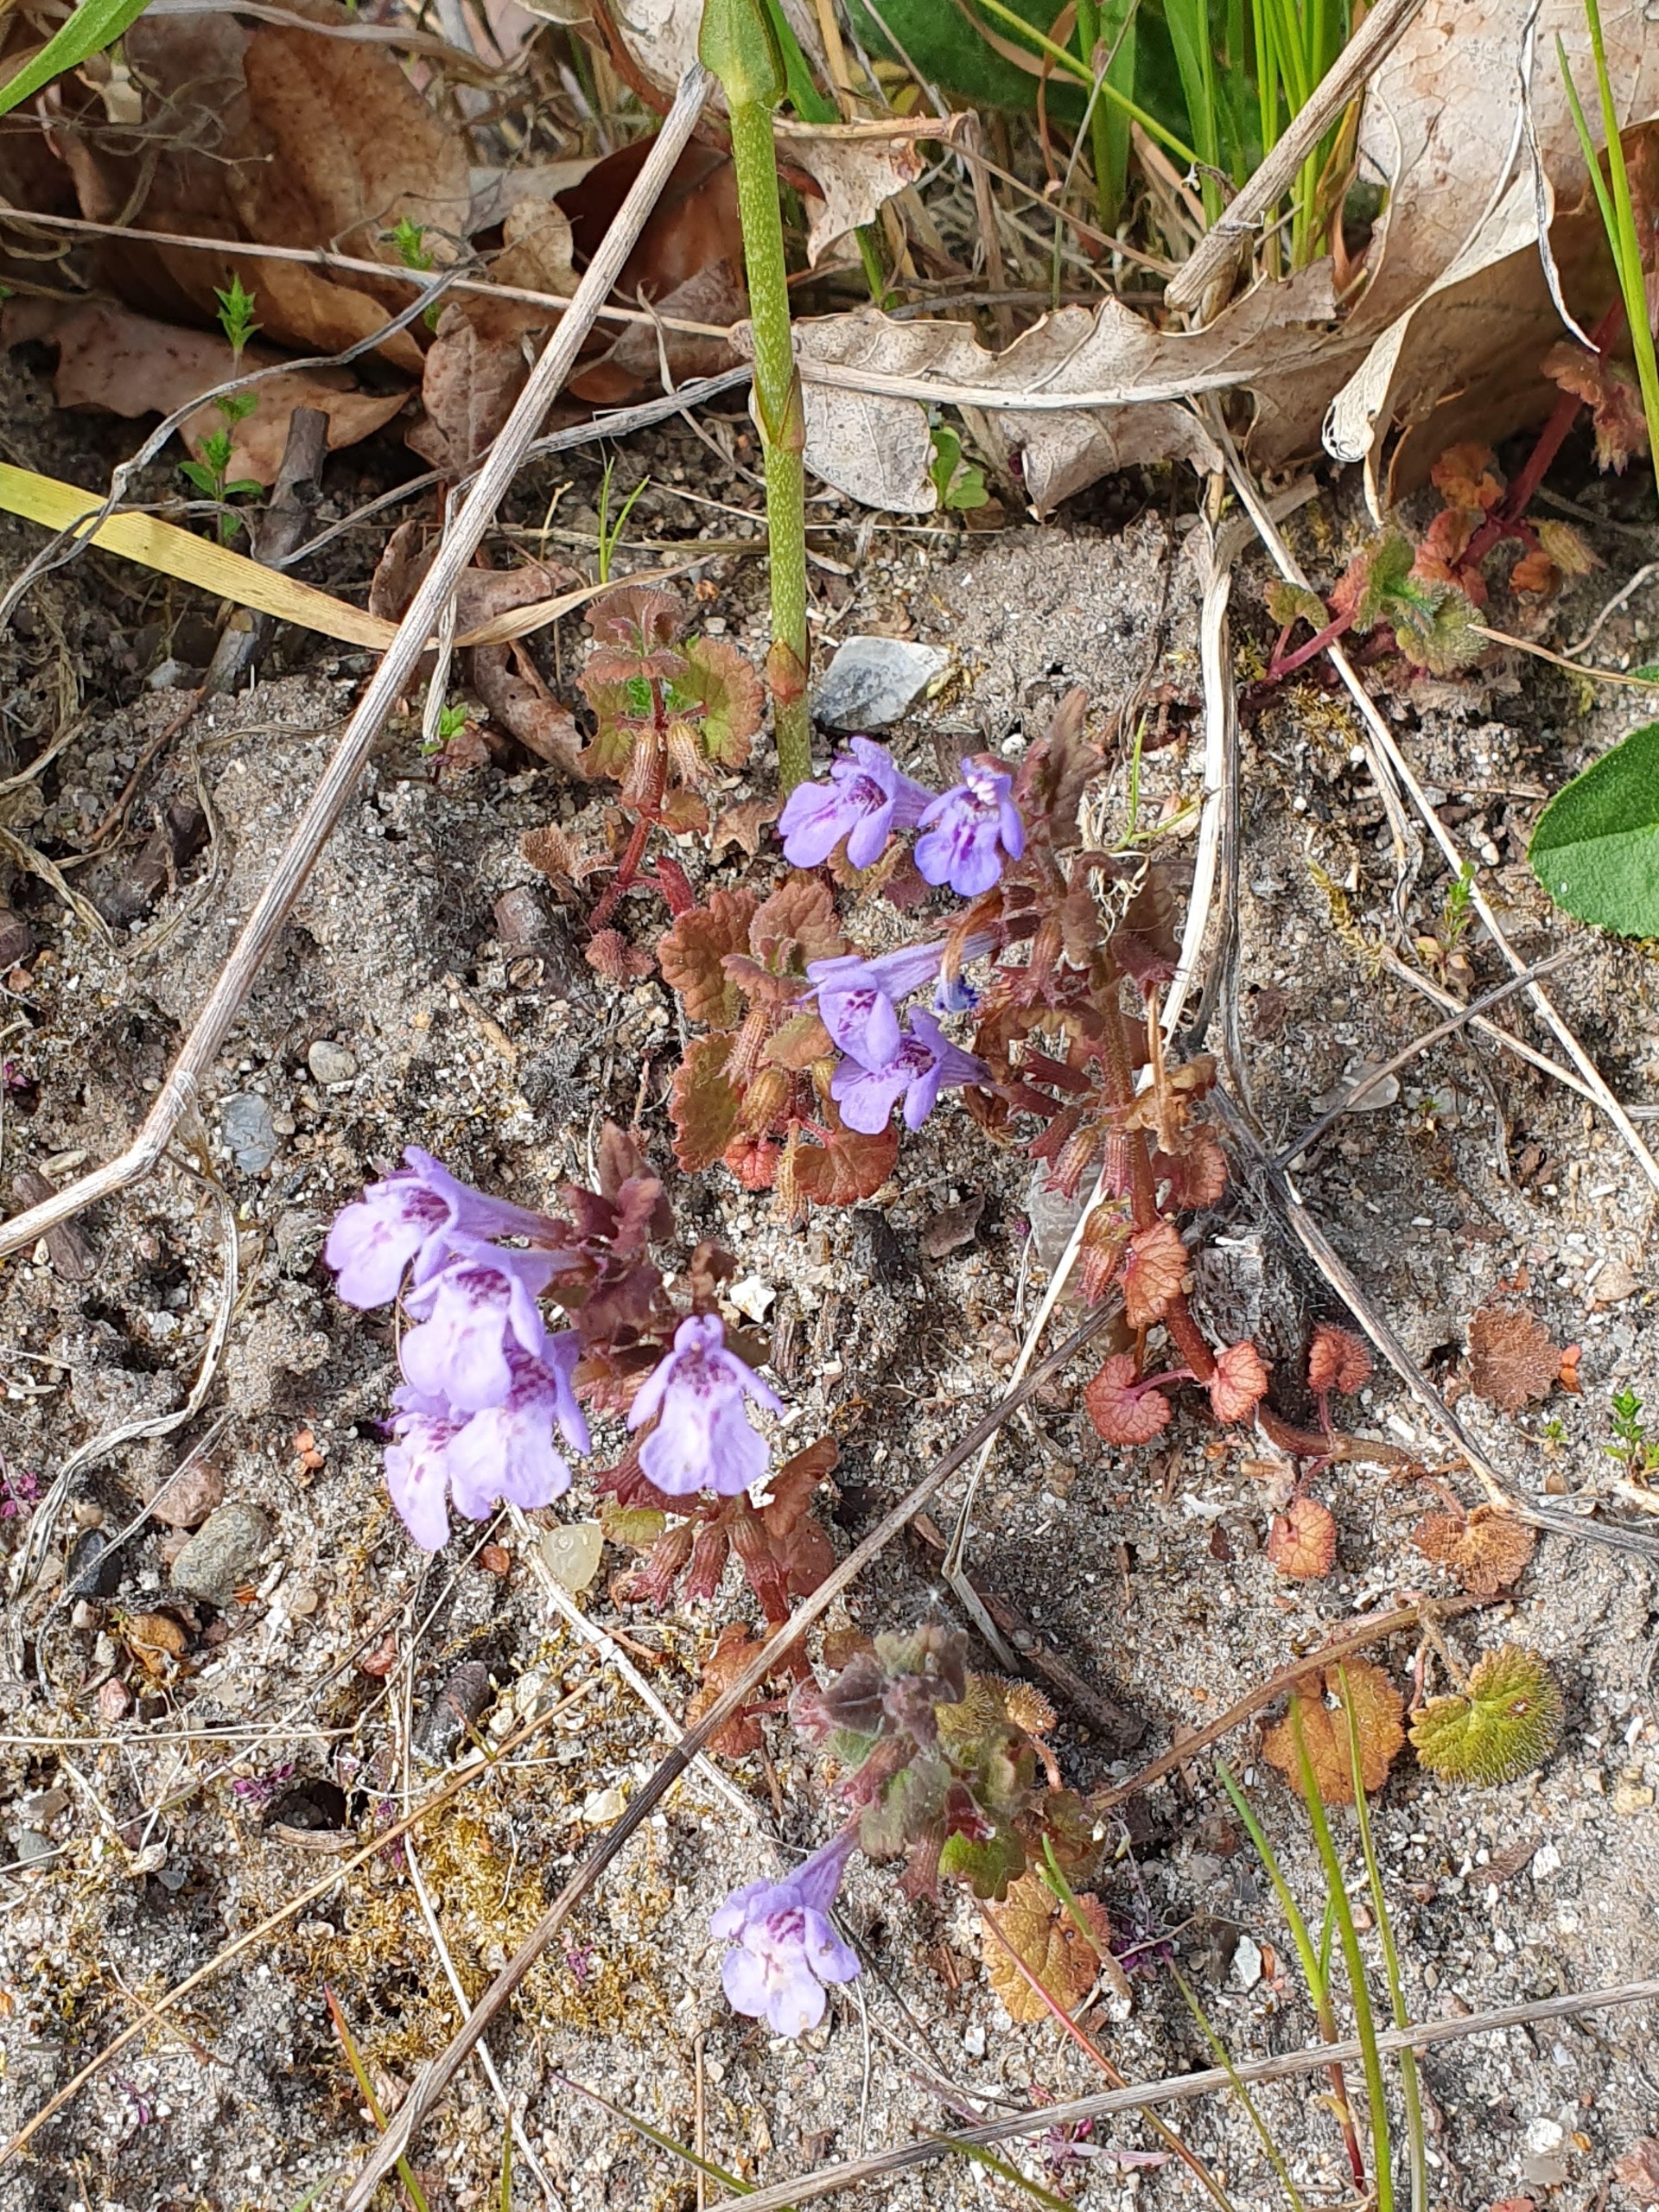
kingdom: Plantae
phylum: Tracheophyta
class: Magnoliopsida
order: Lamiales
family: Lamiaceae
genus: Glechoma
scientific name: Glechoma hederacea
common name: Korsknap
